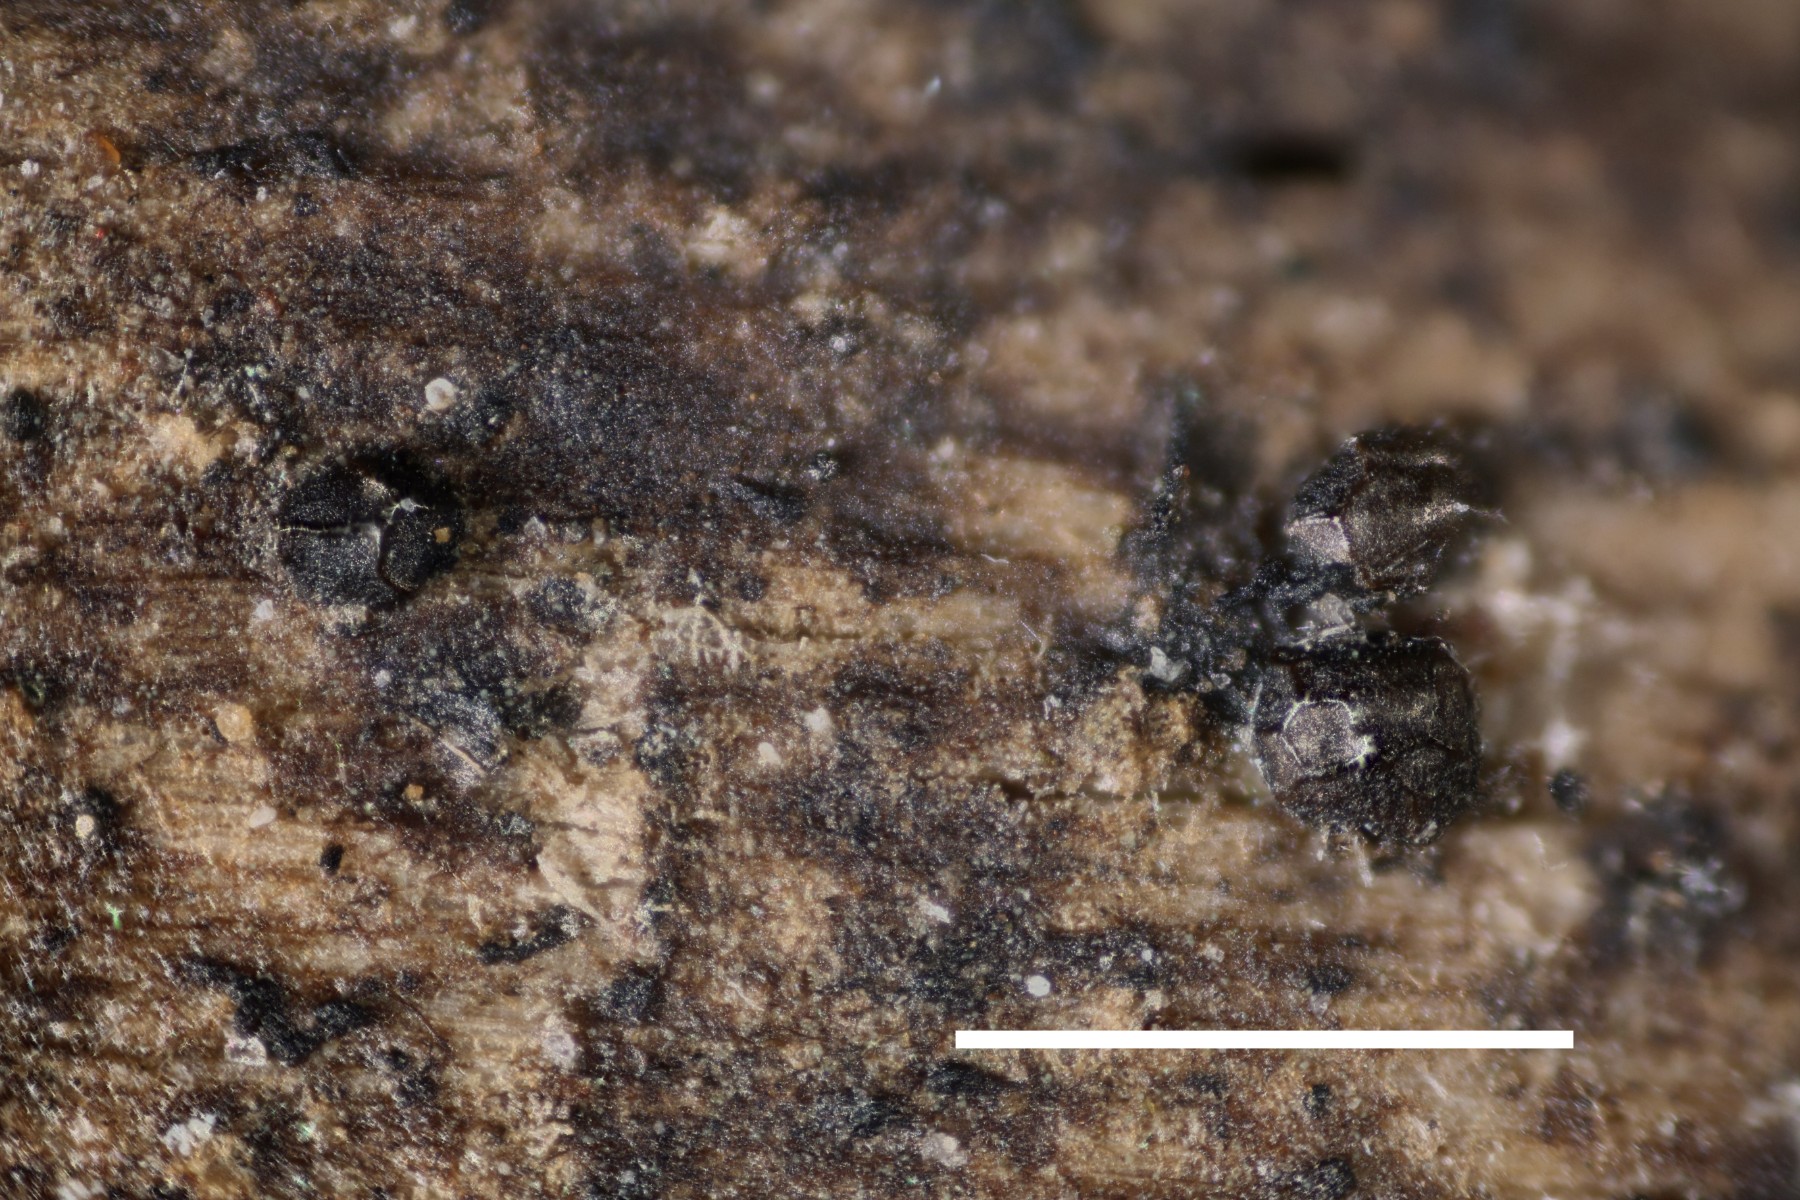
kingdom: Protozoa
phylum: Mycetozoa
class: Myxomycetes
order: Cribrariales
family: Liceaceae
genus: Licea
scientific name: Licea pygmaea
